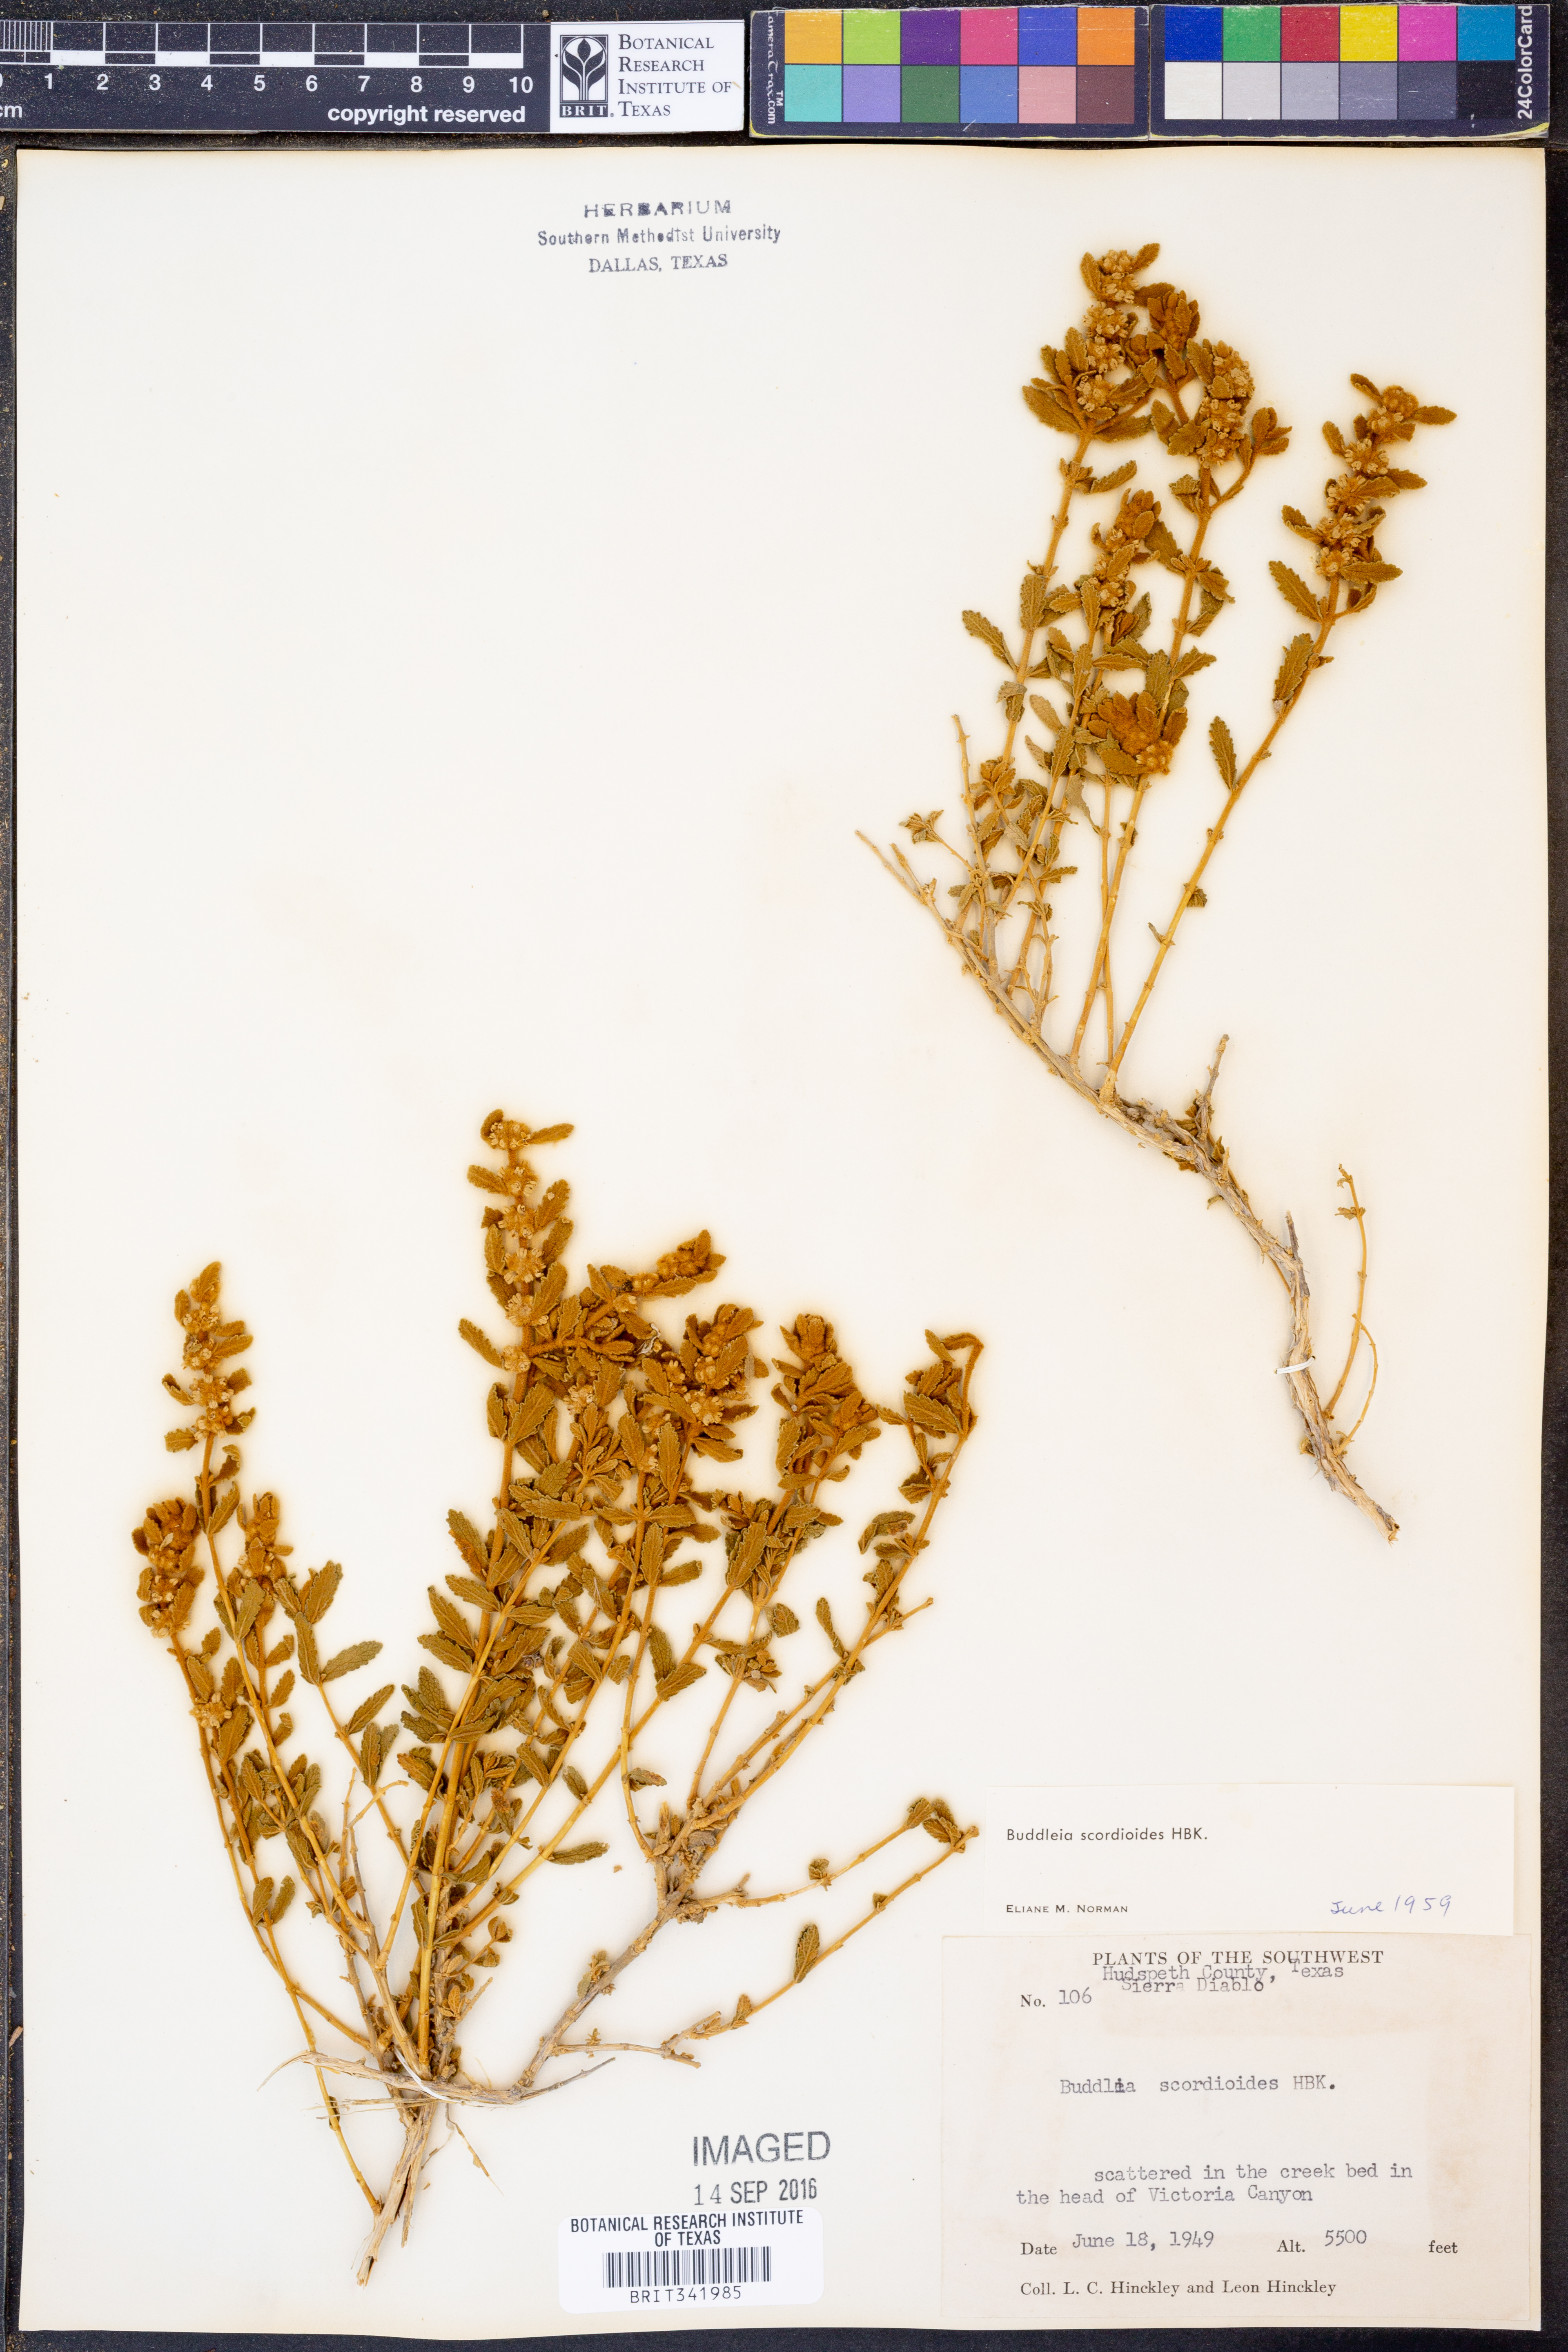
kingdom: Plantae
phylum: Tracheophyta
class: Magnoliopsida
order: Lamiales
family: Scrophulariaceae
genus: Buddleja
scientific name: Buddleja scordioides
